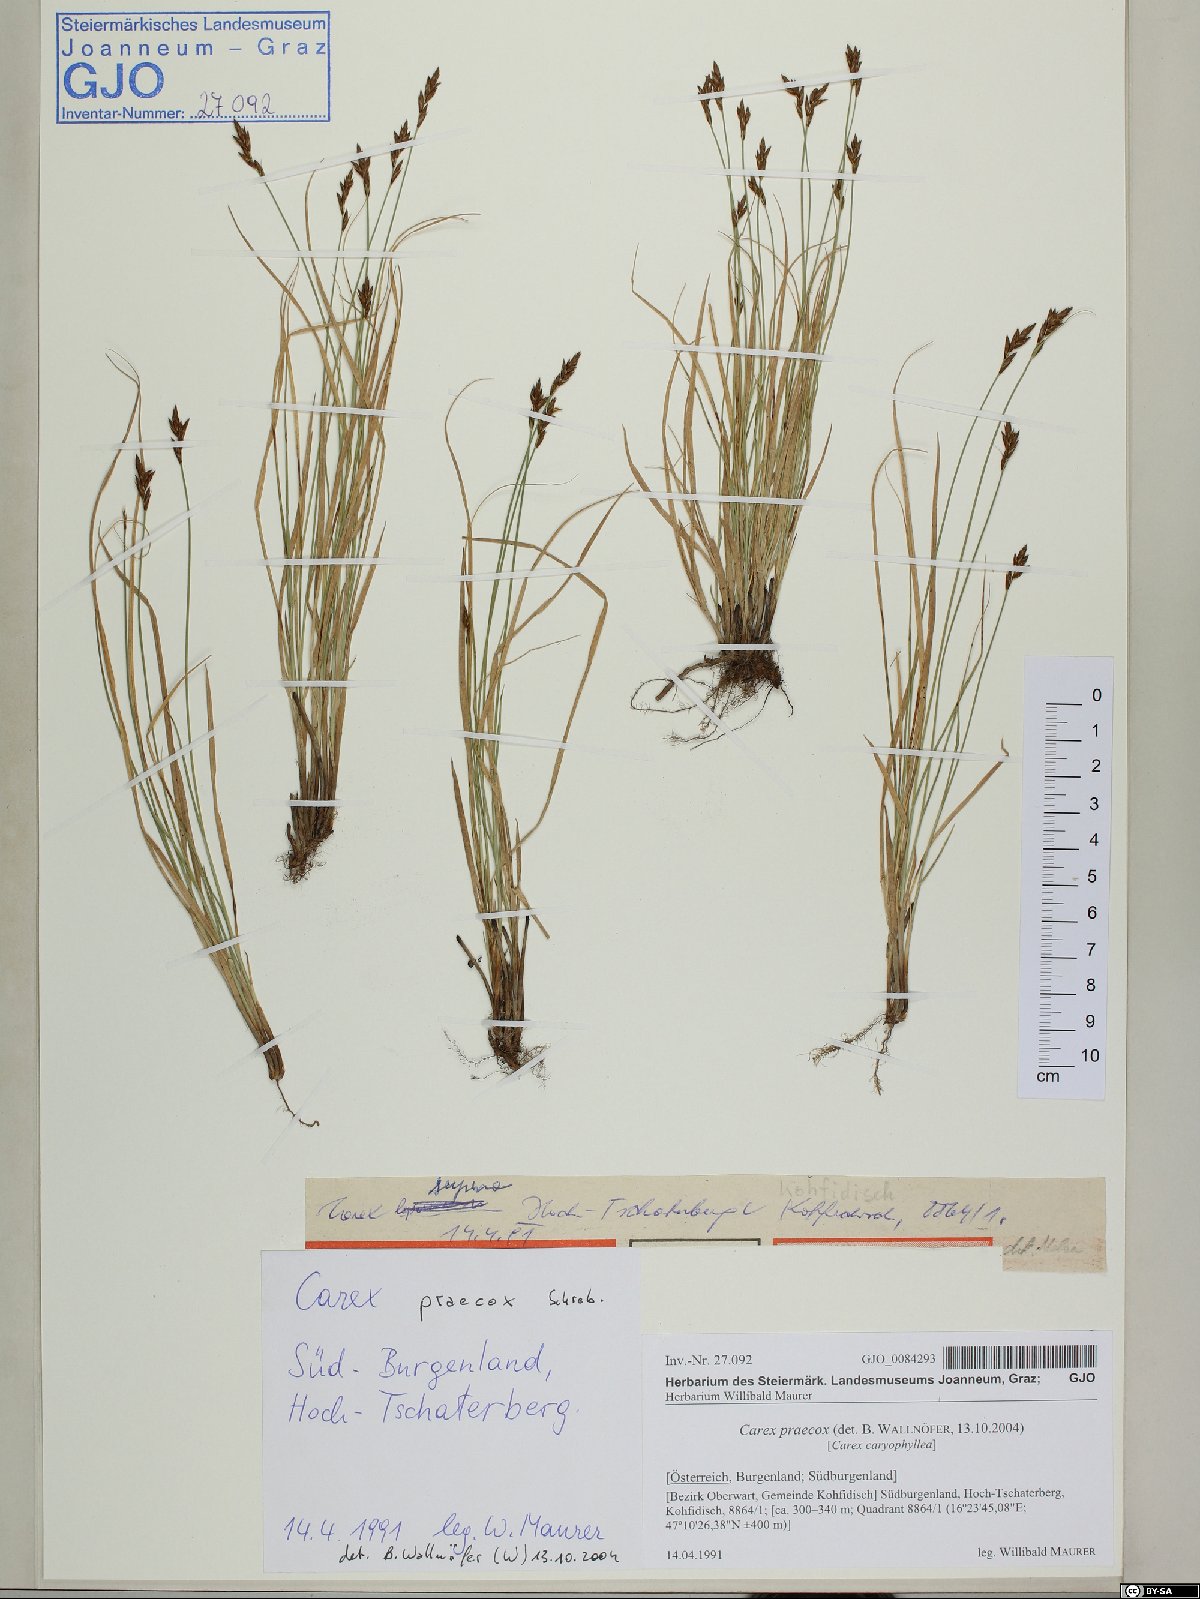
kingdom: Plantae
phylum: Tracheophyta
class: Liliopsida
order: Poales
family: Cyperaceae
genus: Carex
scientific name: Carex praecox
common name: Early sedge
